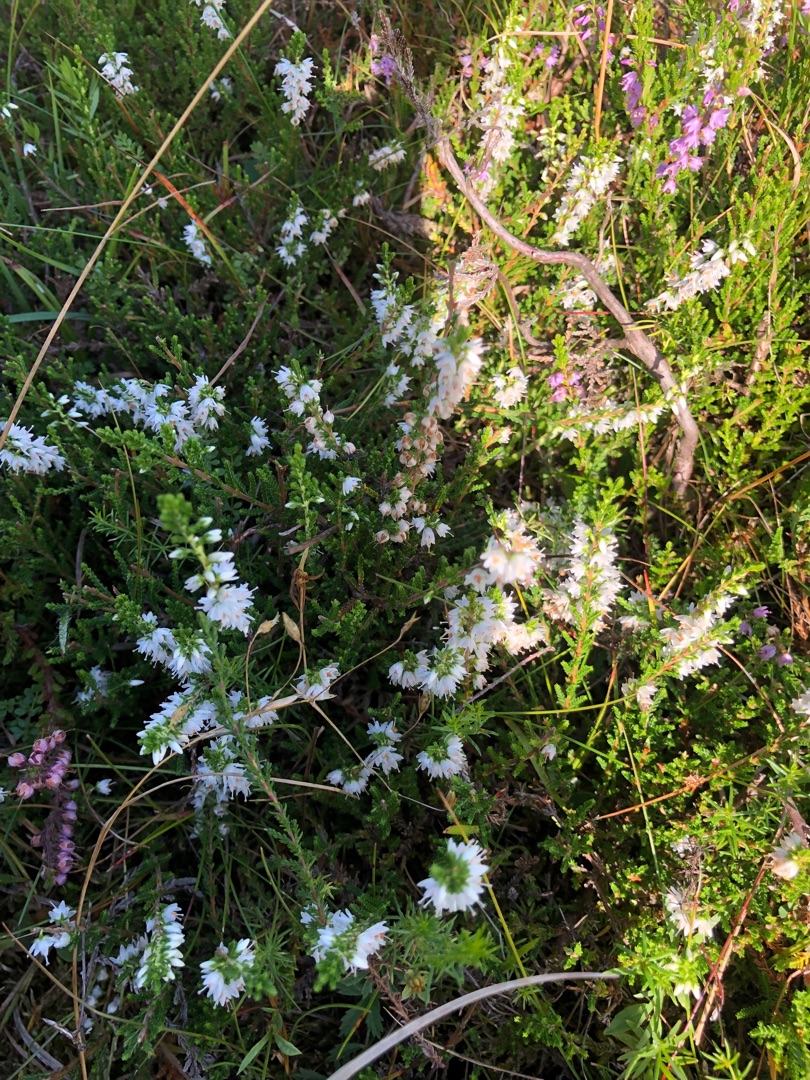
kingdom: Plantae
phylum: Tracheophyta
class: Magnoliopsida
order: Ericales
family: Ericaceae
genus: Calluna
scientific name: Calluna vulgaris
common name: Hedelyng
